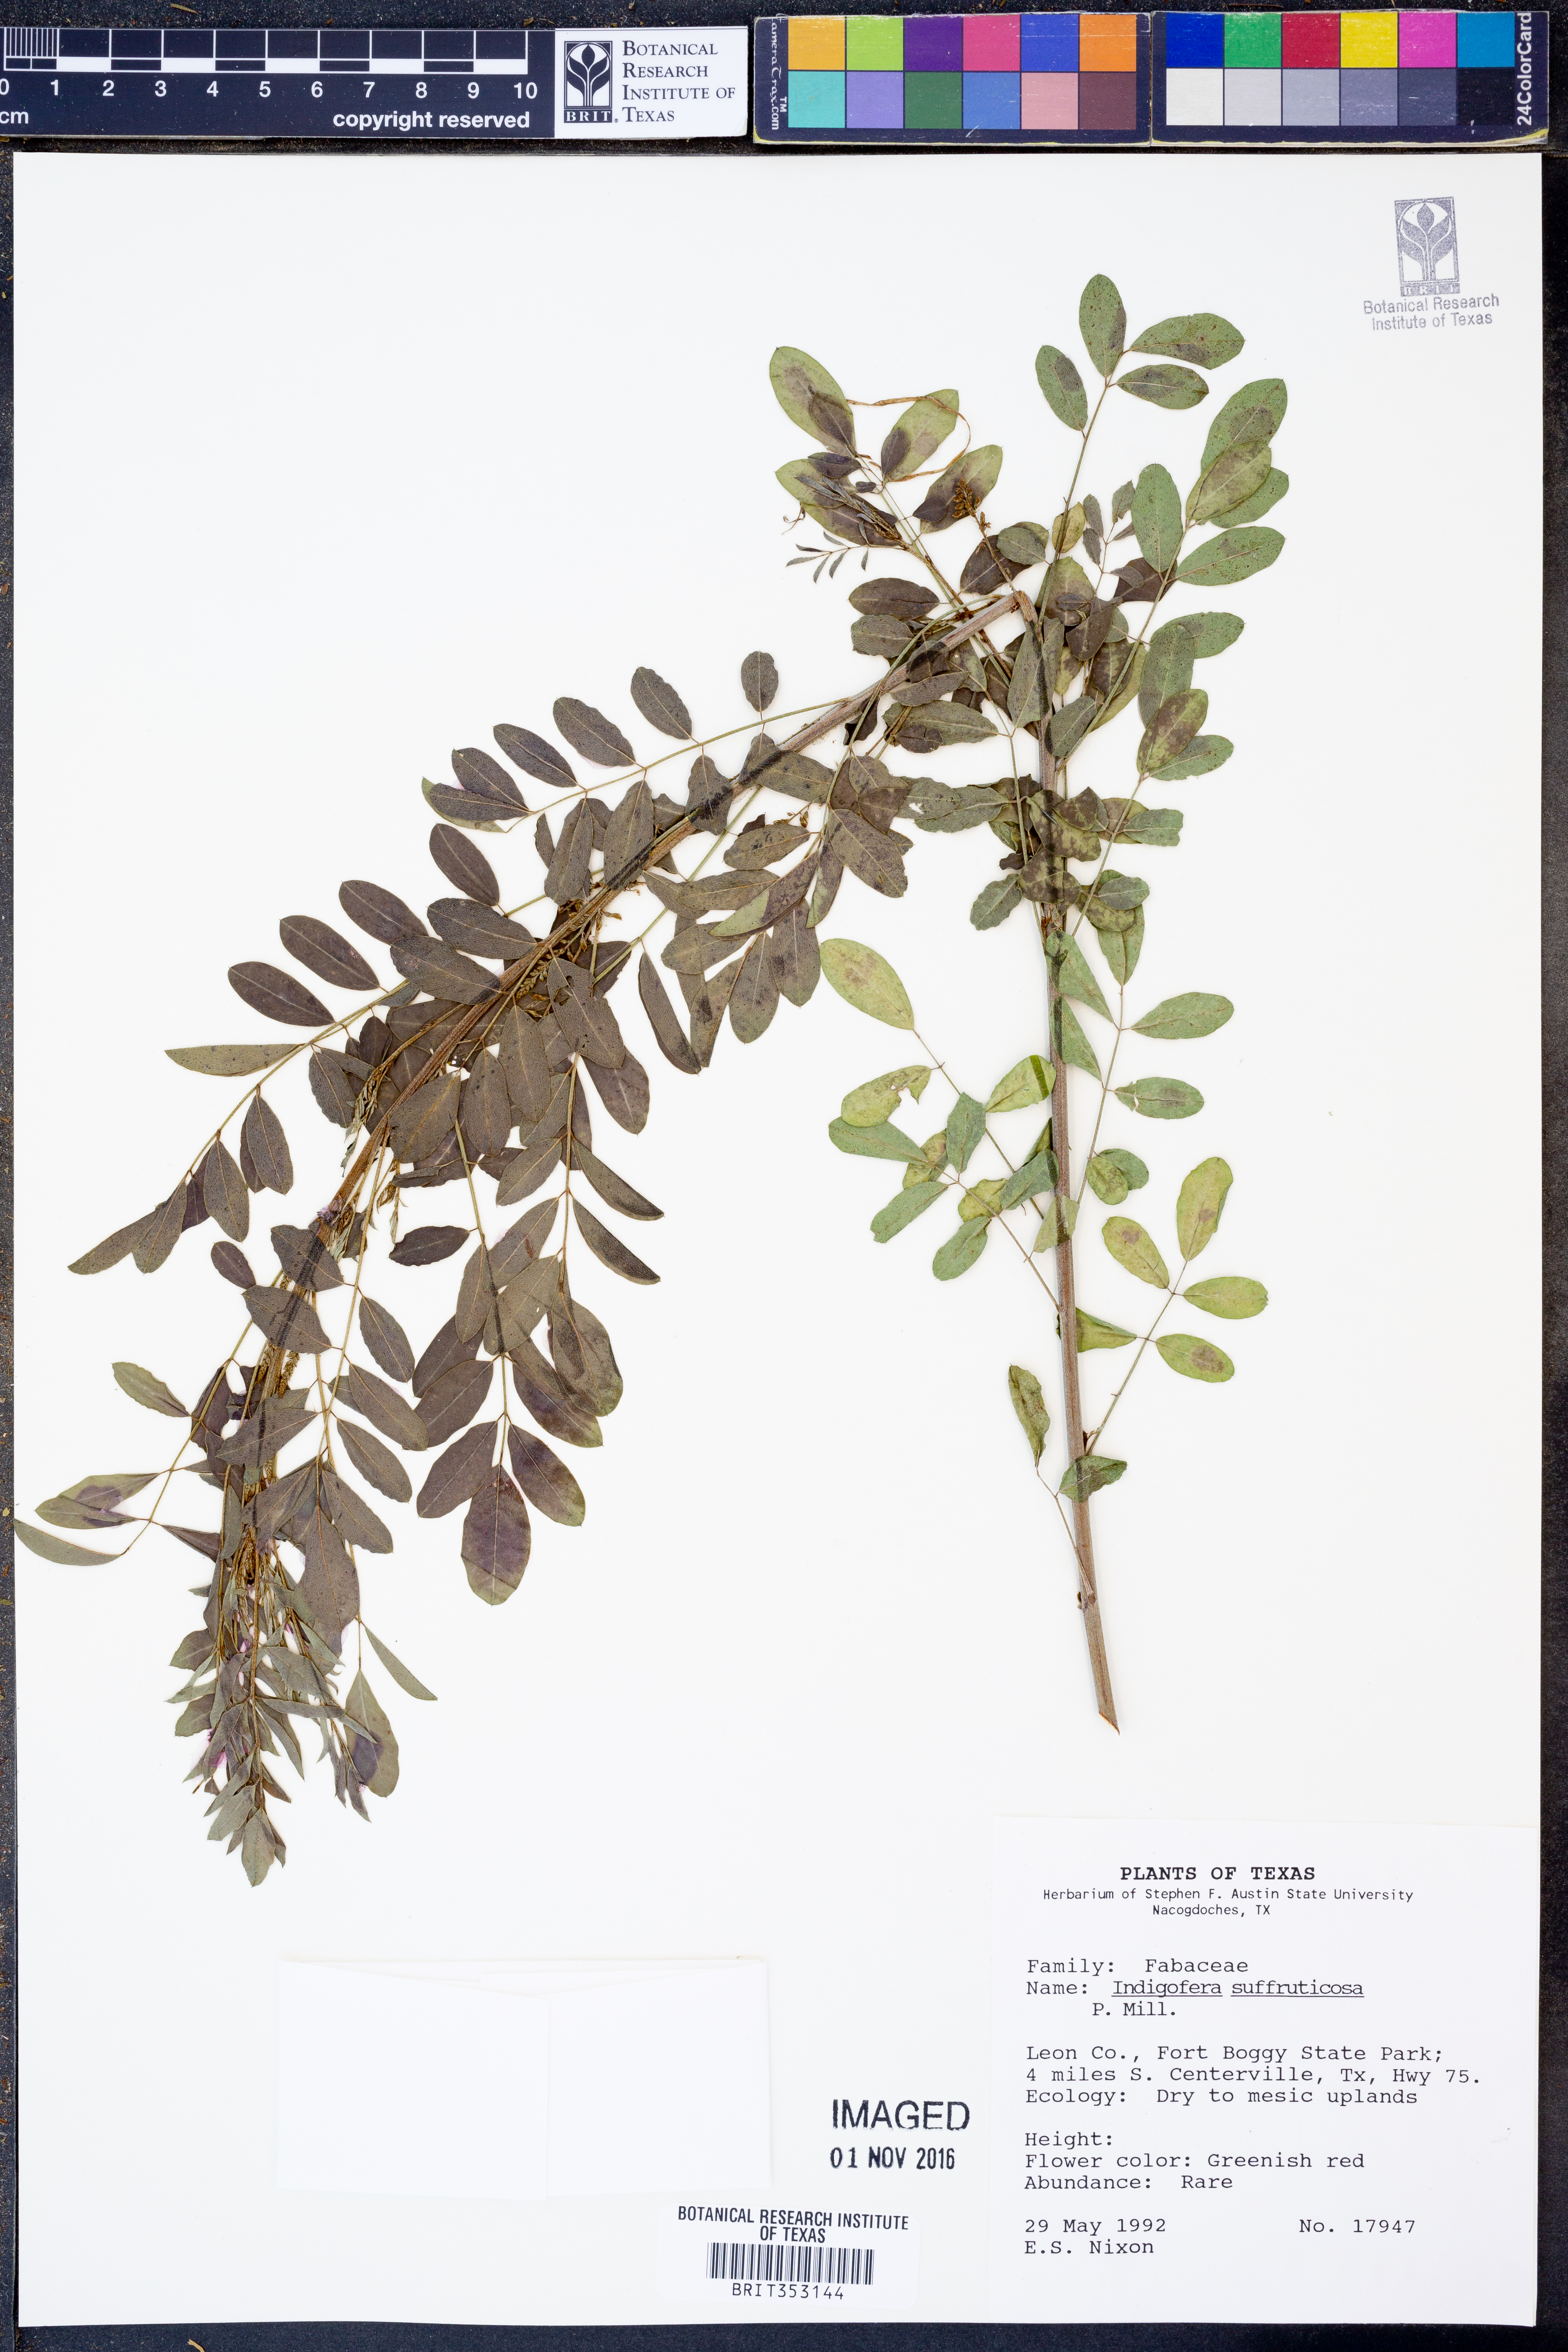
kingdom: Plantae
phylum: Tracheophyta
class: Magnoliopsida
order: Fabales
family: Fabaceae
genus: Indigofera
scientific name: Indigofera suffruticosa
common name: Anil de pasto
